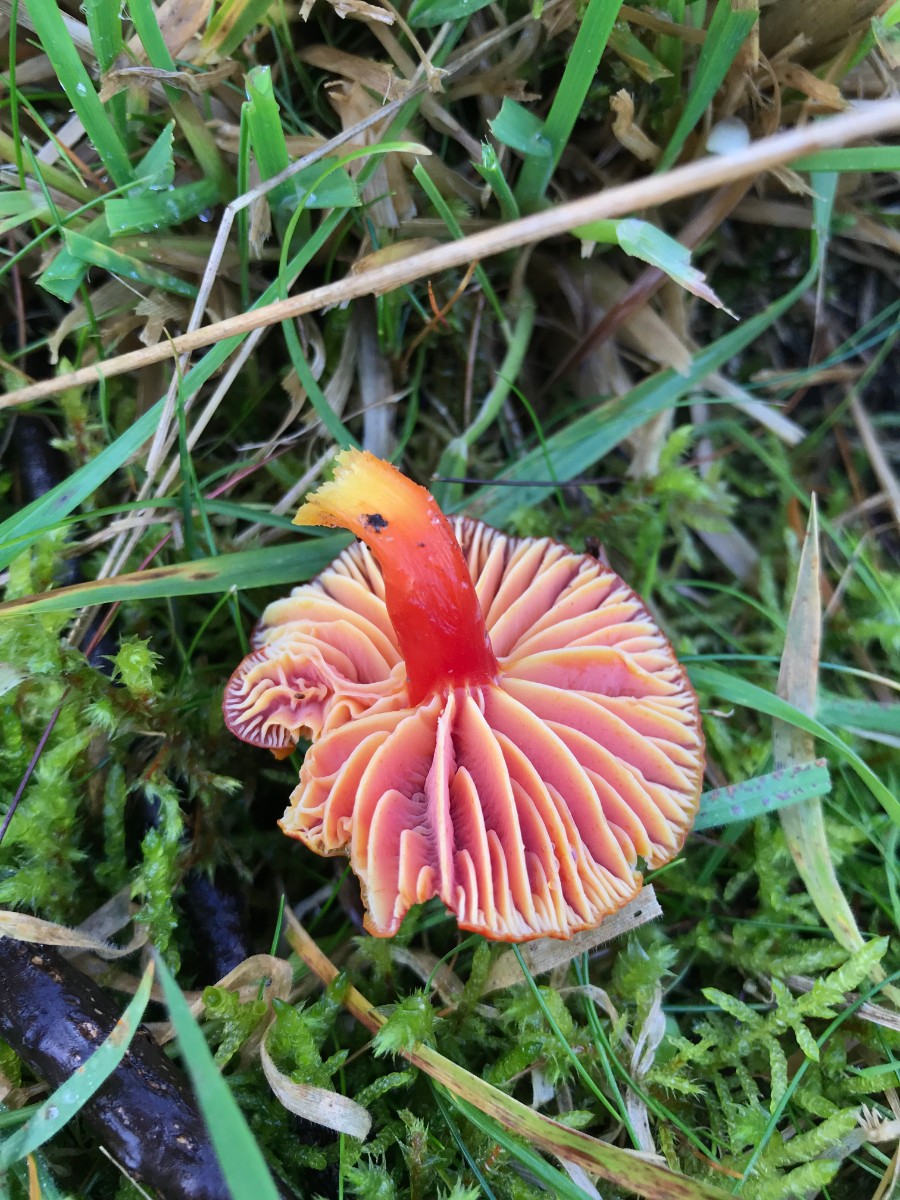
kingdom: Fungi
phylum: Basidiomycota
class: Agaricomycetes
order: Agaricales
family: Hygrophoraceae
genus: Hygrocybe
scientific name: Hygrocybe coccinea
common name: cinnober-vokshat
